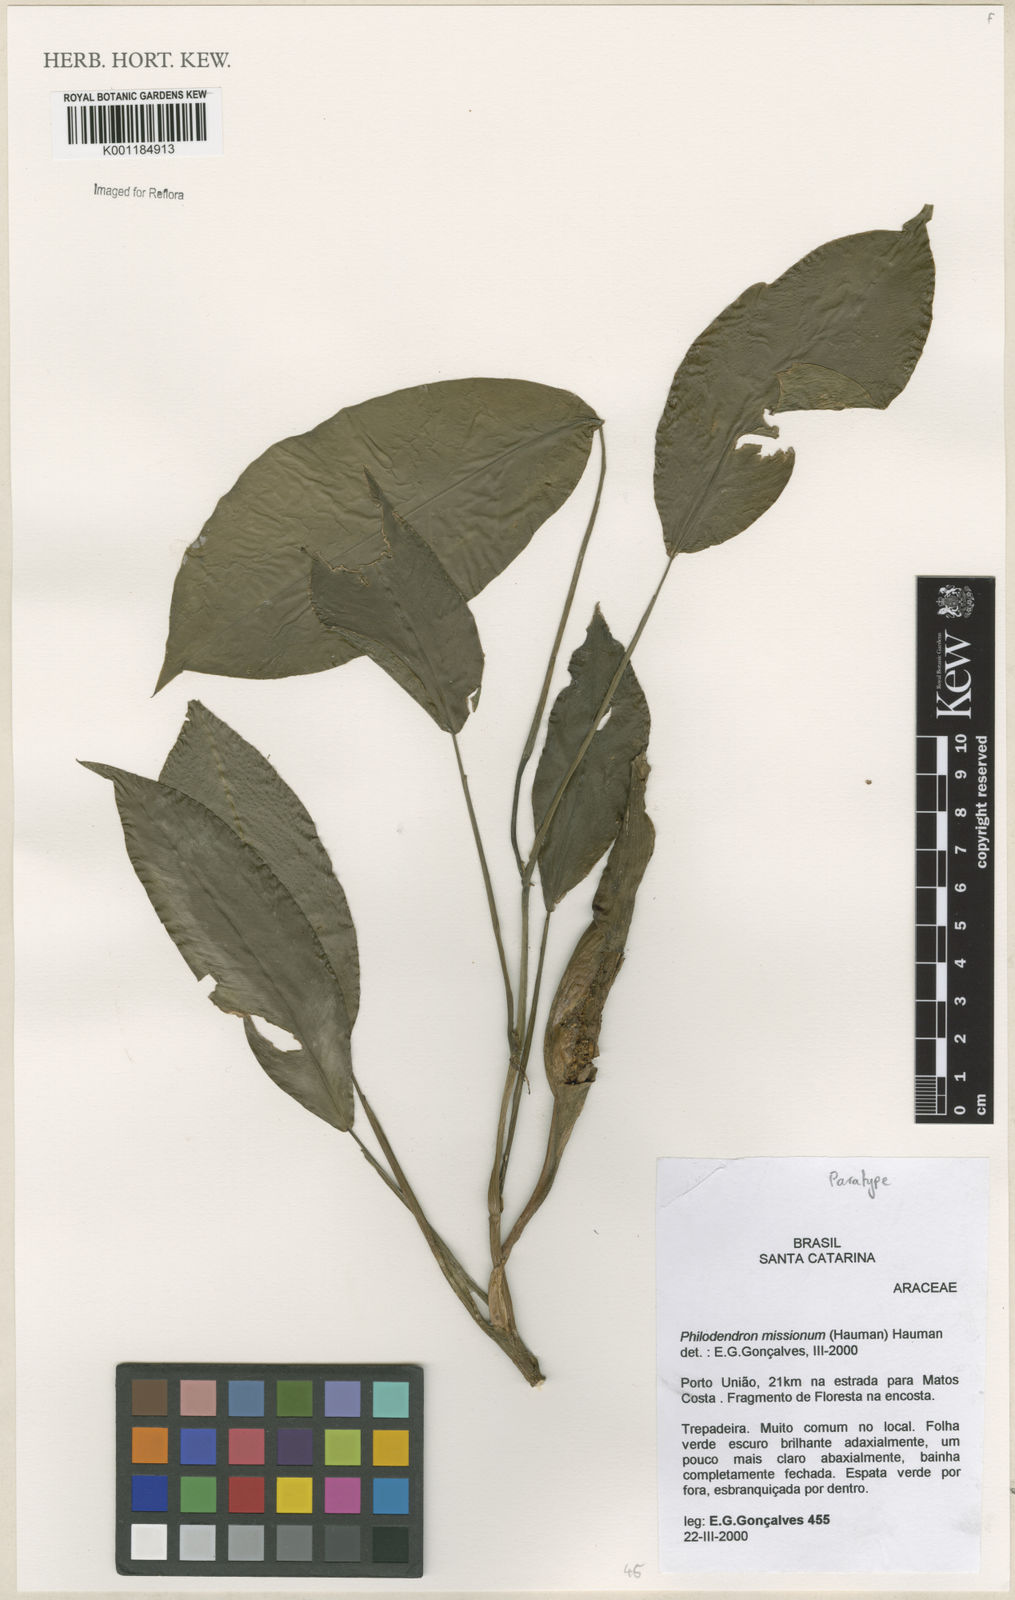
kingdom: Plantae
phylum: Tracheophyta
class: Liliopsida
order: Alismatales
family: Araceae
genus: Philodendron
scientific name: Philodendron missionum
